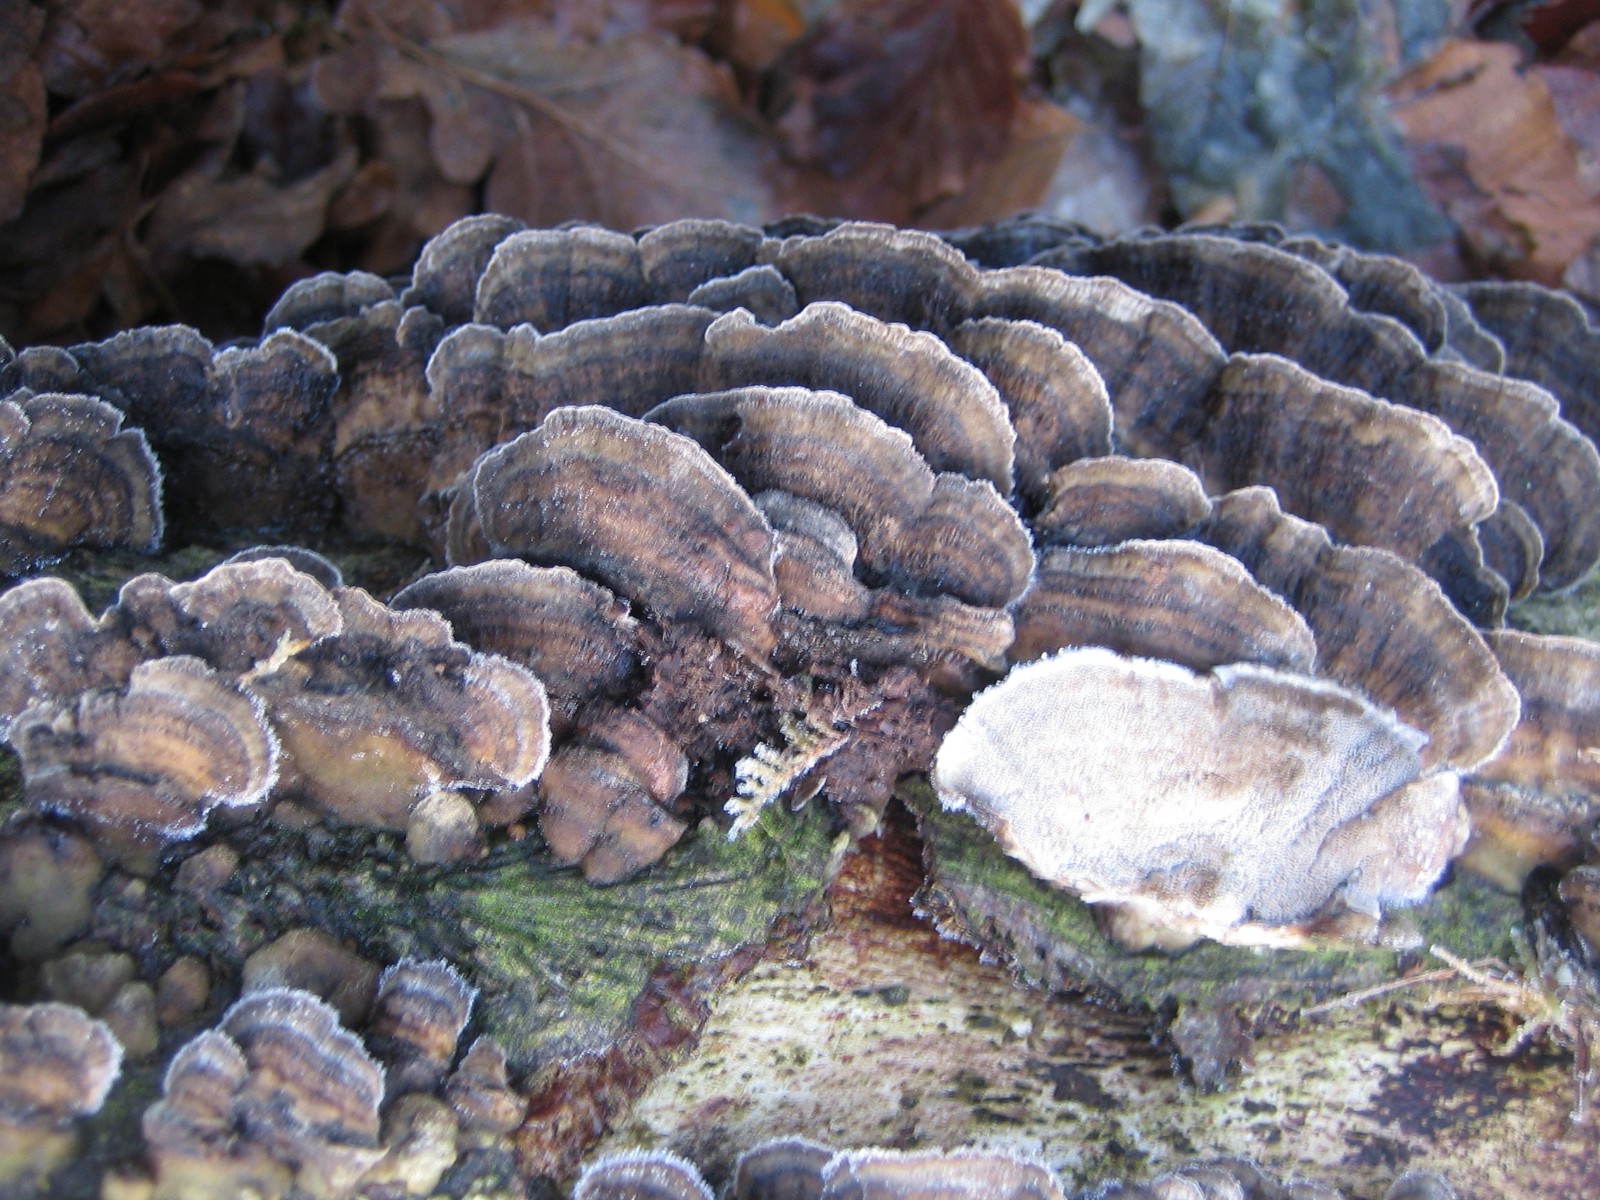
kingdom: Fungi
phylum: Basidiomycota
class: Agaricomycetes
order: Polyporales
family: Phanerochaetaceae
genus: Bjerkandera
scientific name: Bjerkandera adusta
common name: sveden sodporesvamp
